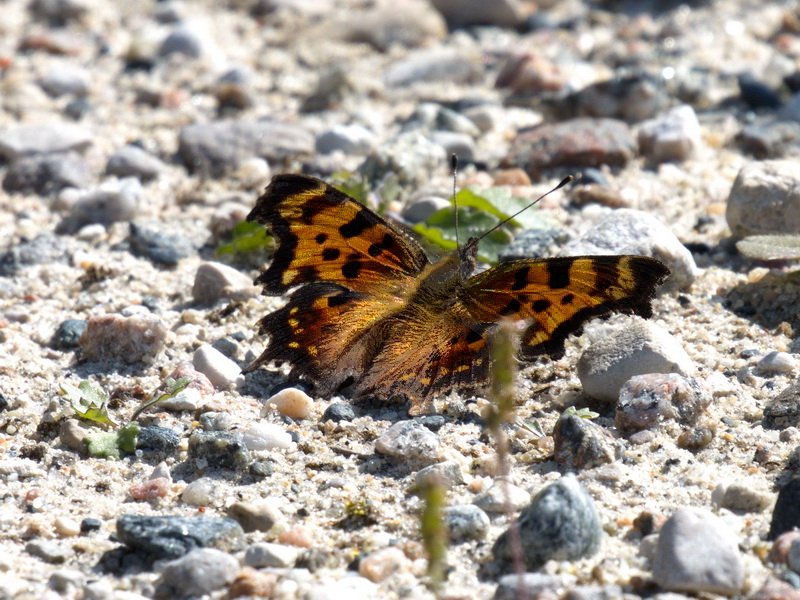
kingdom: Animalia
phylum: Arthropoda
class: Insecta
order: Lepidoptera
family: Nymphalidae
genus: Polygonia
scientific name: Polygonia faunus
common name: Green Comma
